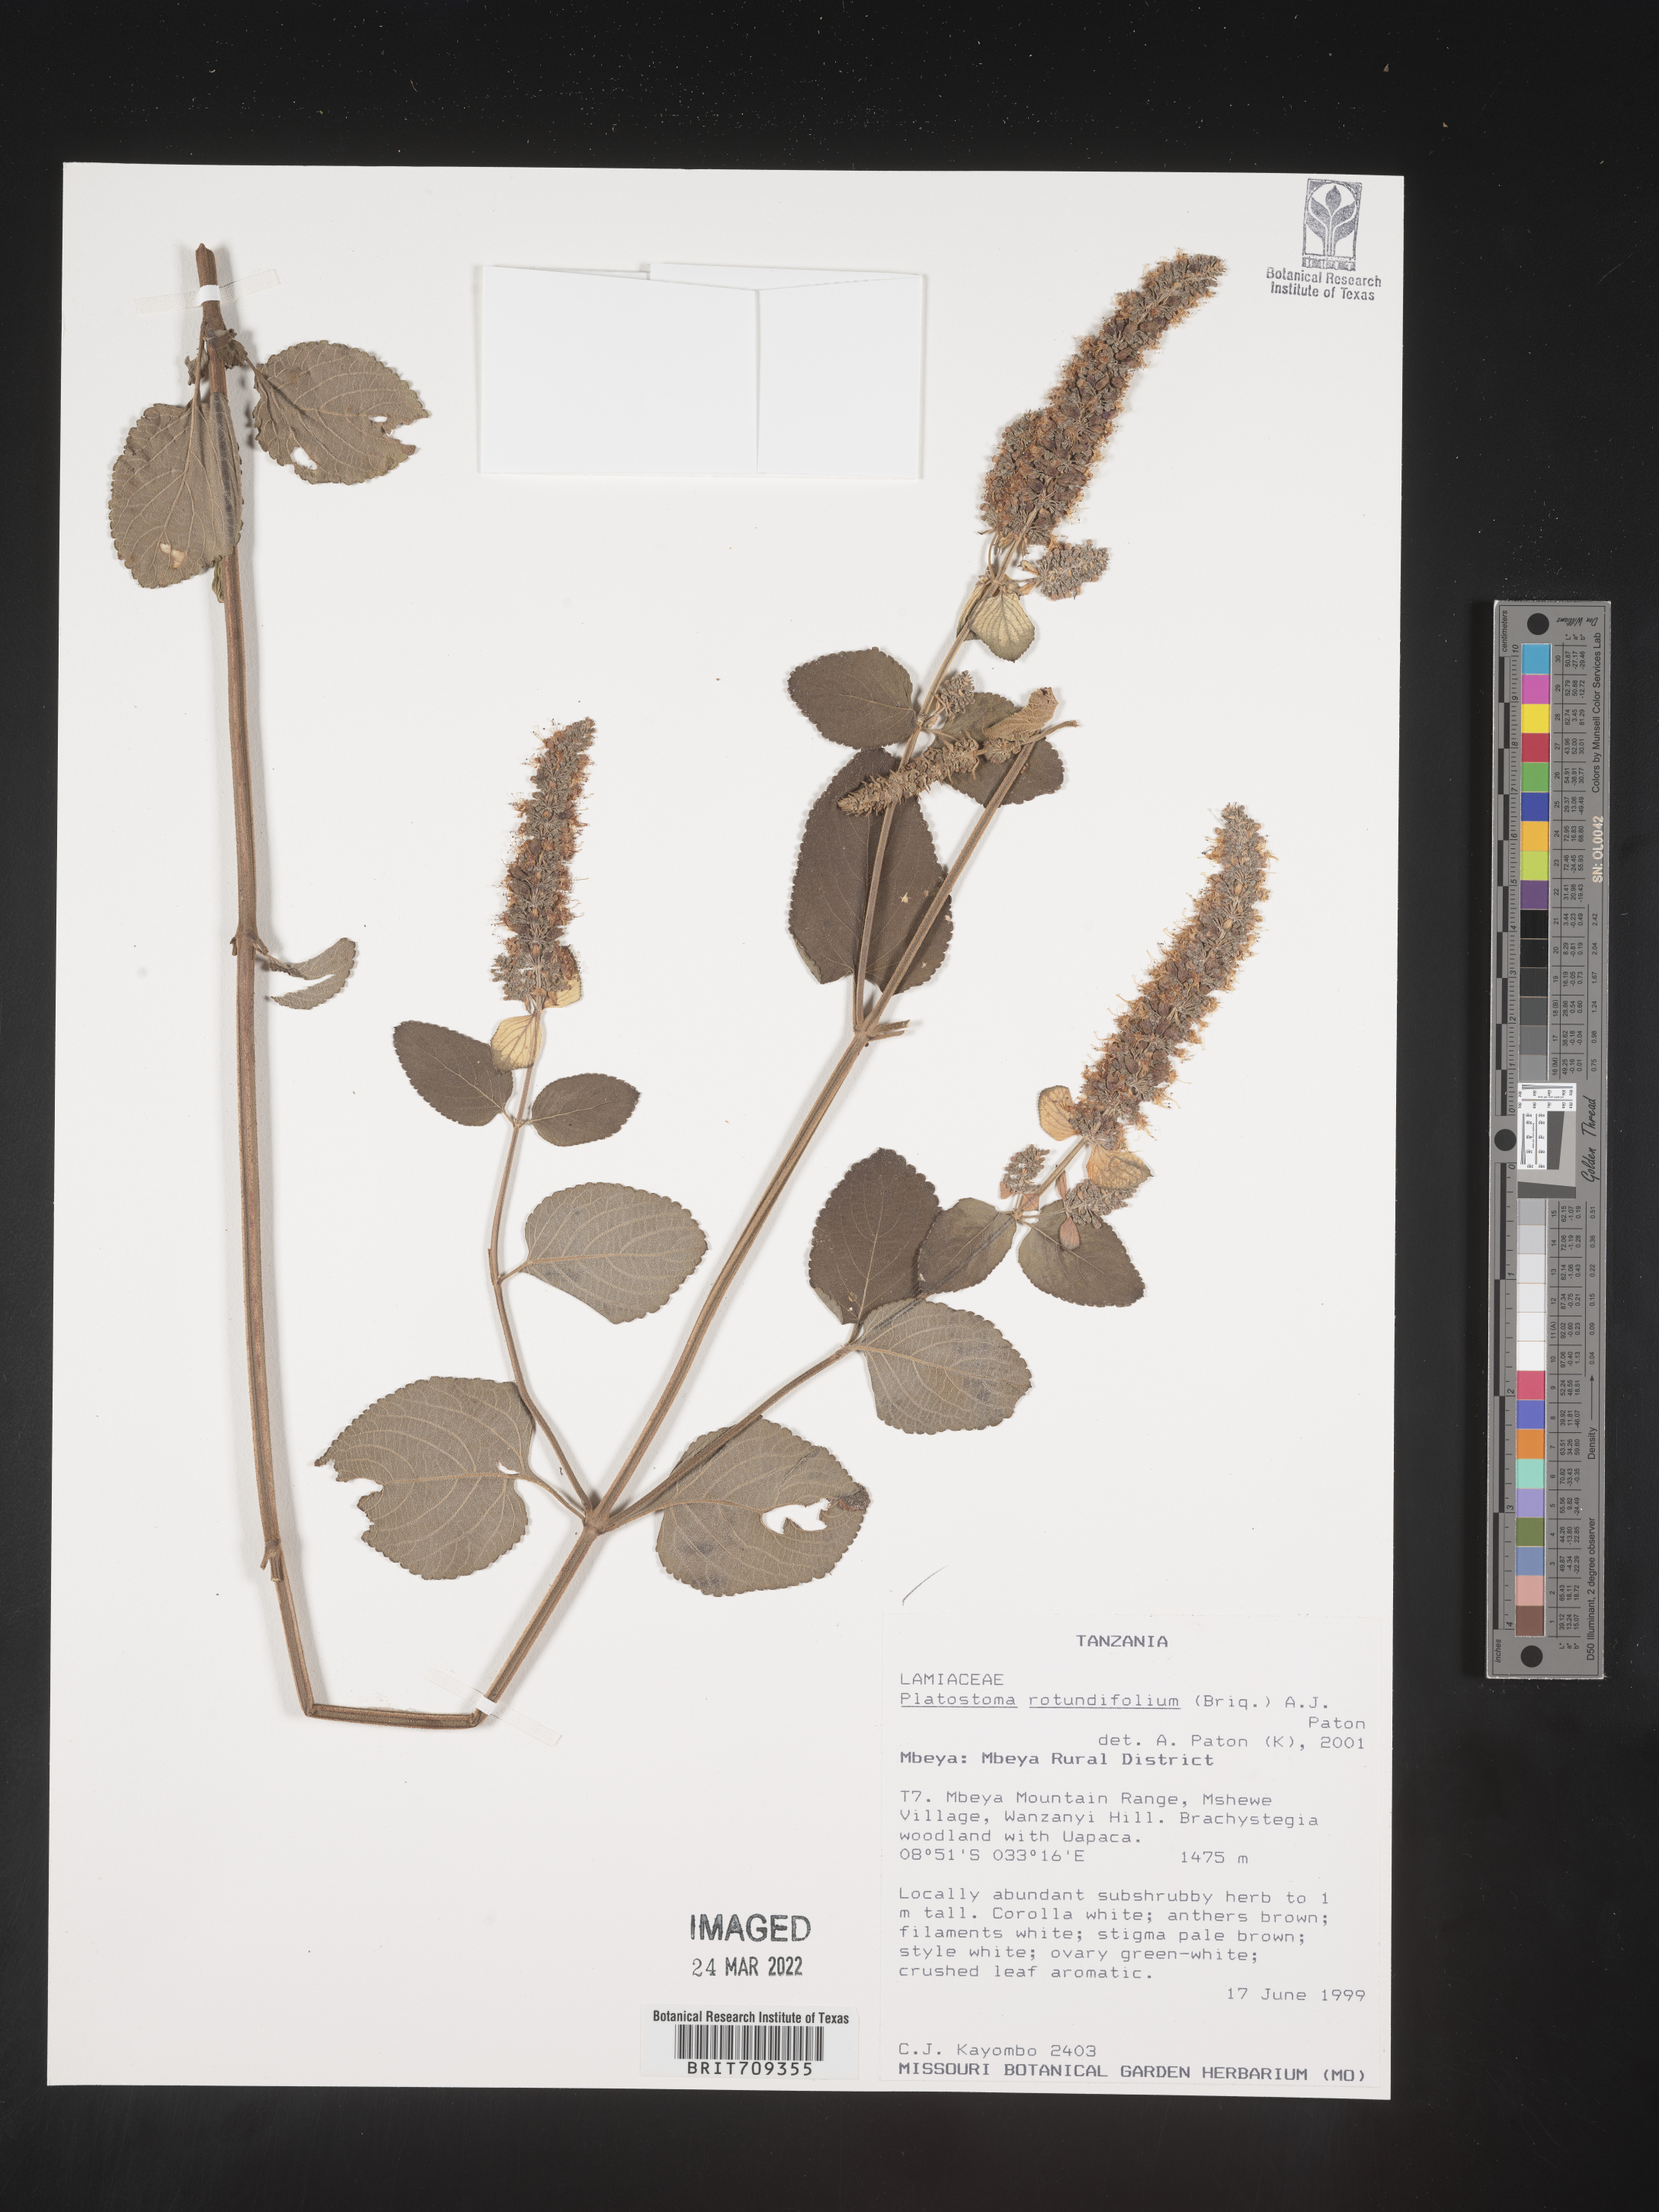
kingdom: Plantae
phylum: Tracheophyta
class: Magnoliopsida
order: Lamiales
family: Lamiaceae
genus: Platystoma
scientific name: Platystoma
